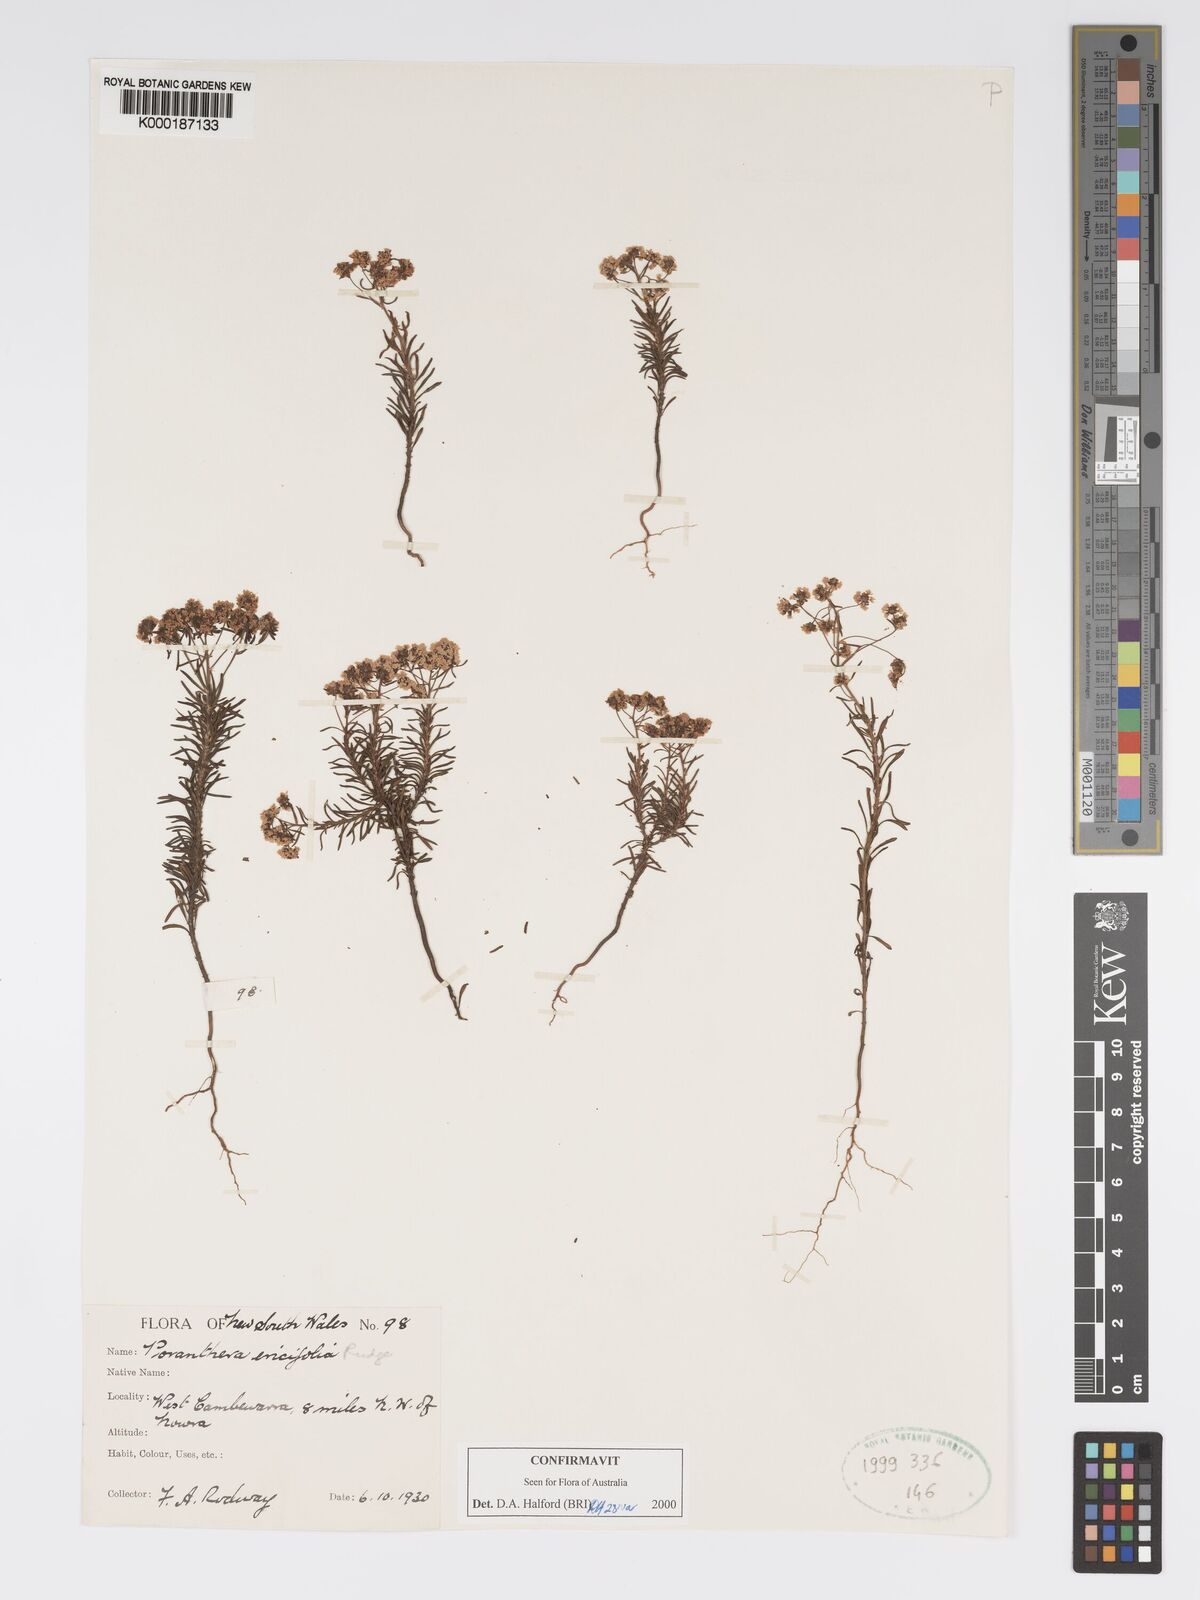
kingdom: Plantae
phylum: Tracheophyta
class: Magnoliopsida
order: Malpighiales
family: Phyllanthaceae
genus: Poranthera
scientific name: Poranthera ericifolia
